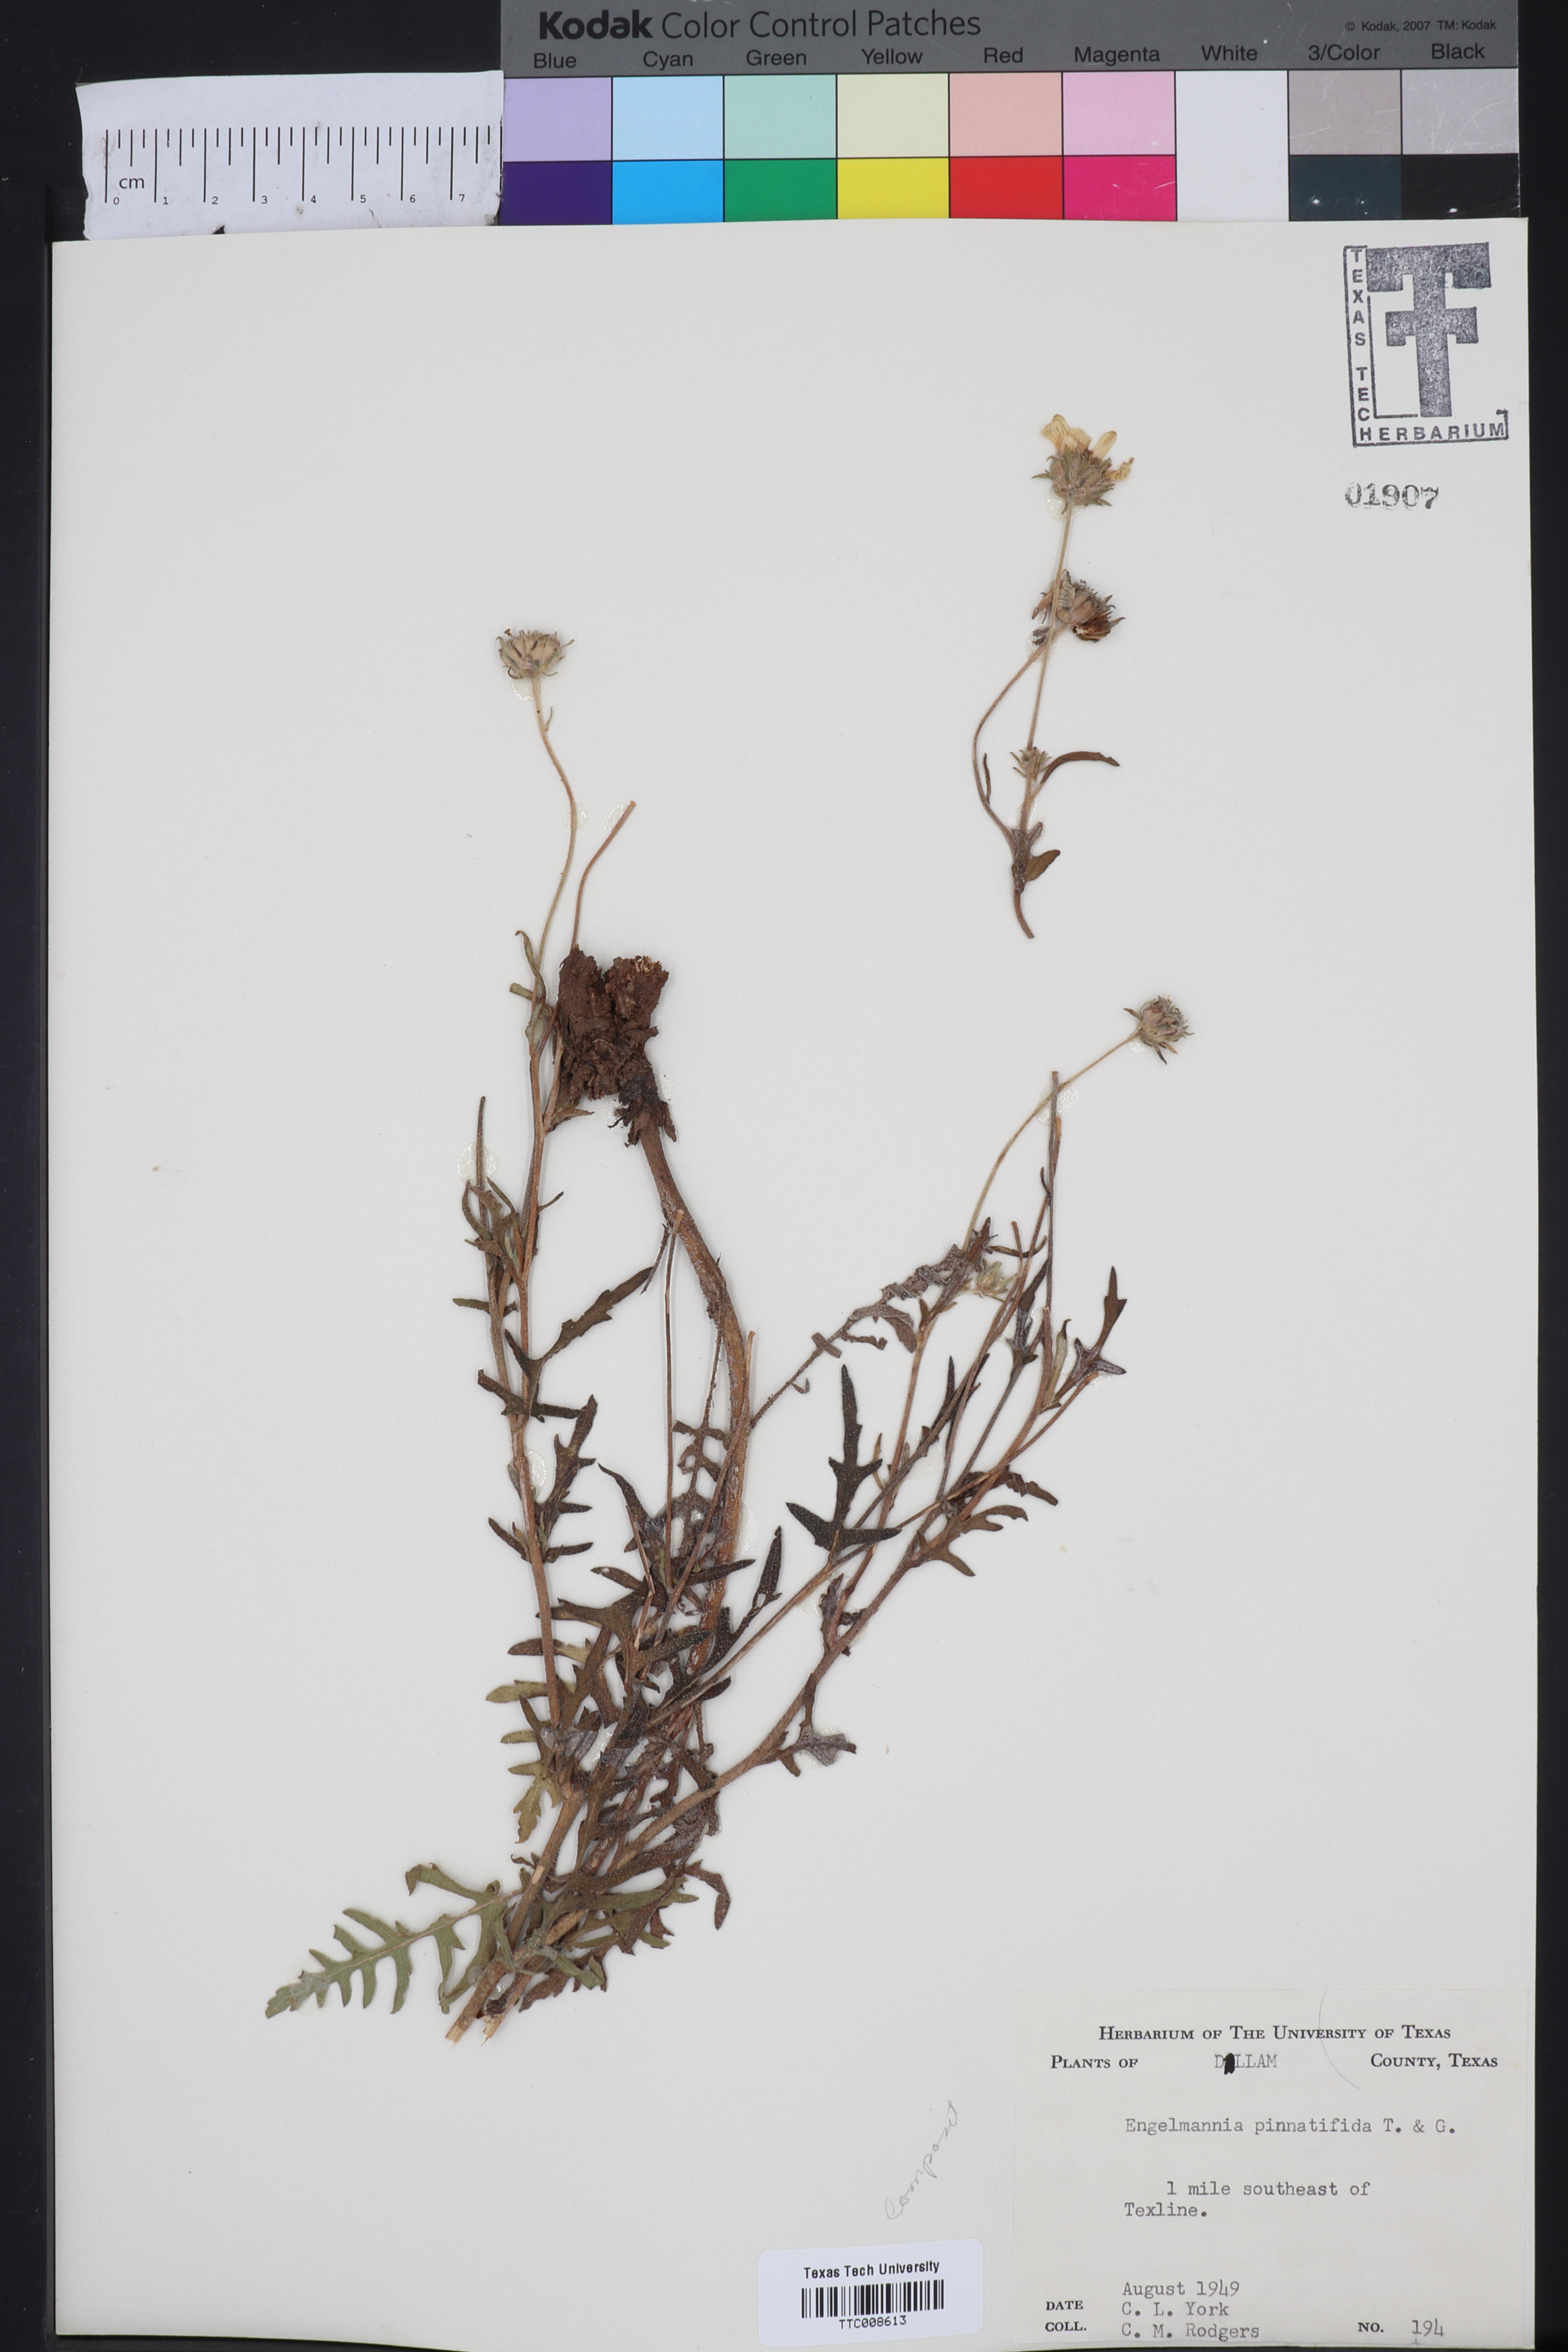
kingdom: Plantae
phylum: Tracheophyta
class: Magnoliopsida
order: Asterales
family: Asteraceae
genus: Engelmannia
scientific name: Engelmannia peristenia
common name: Engelmann's daisy
